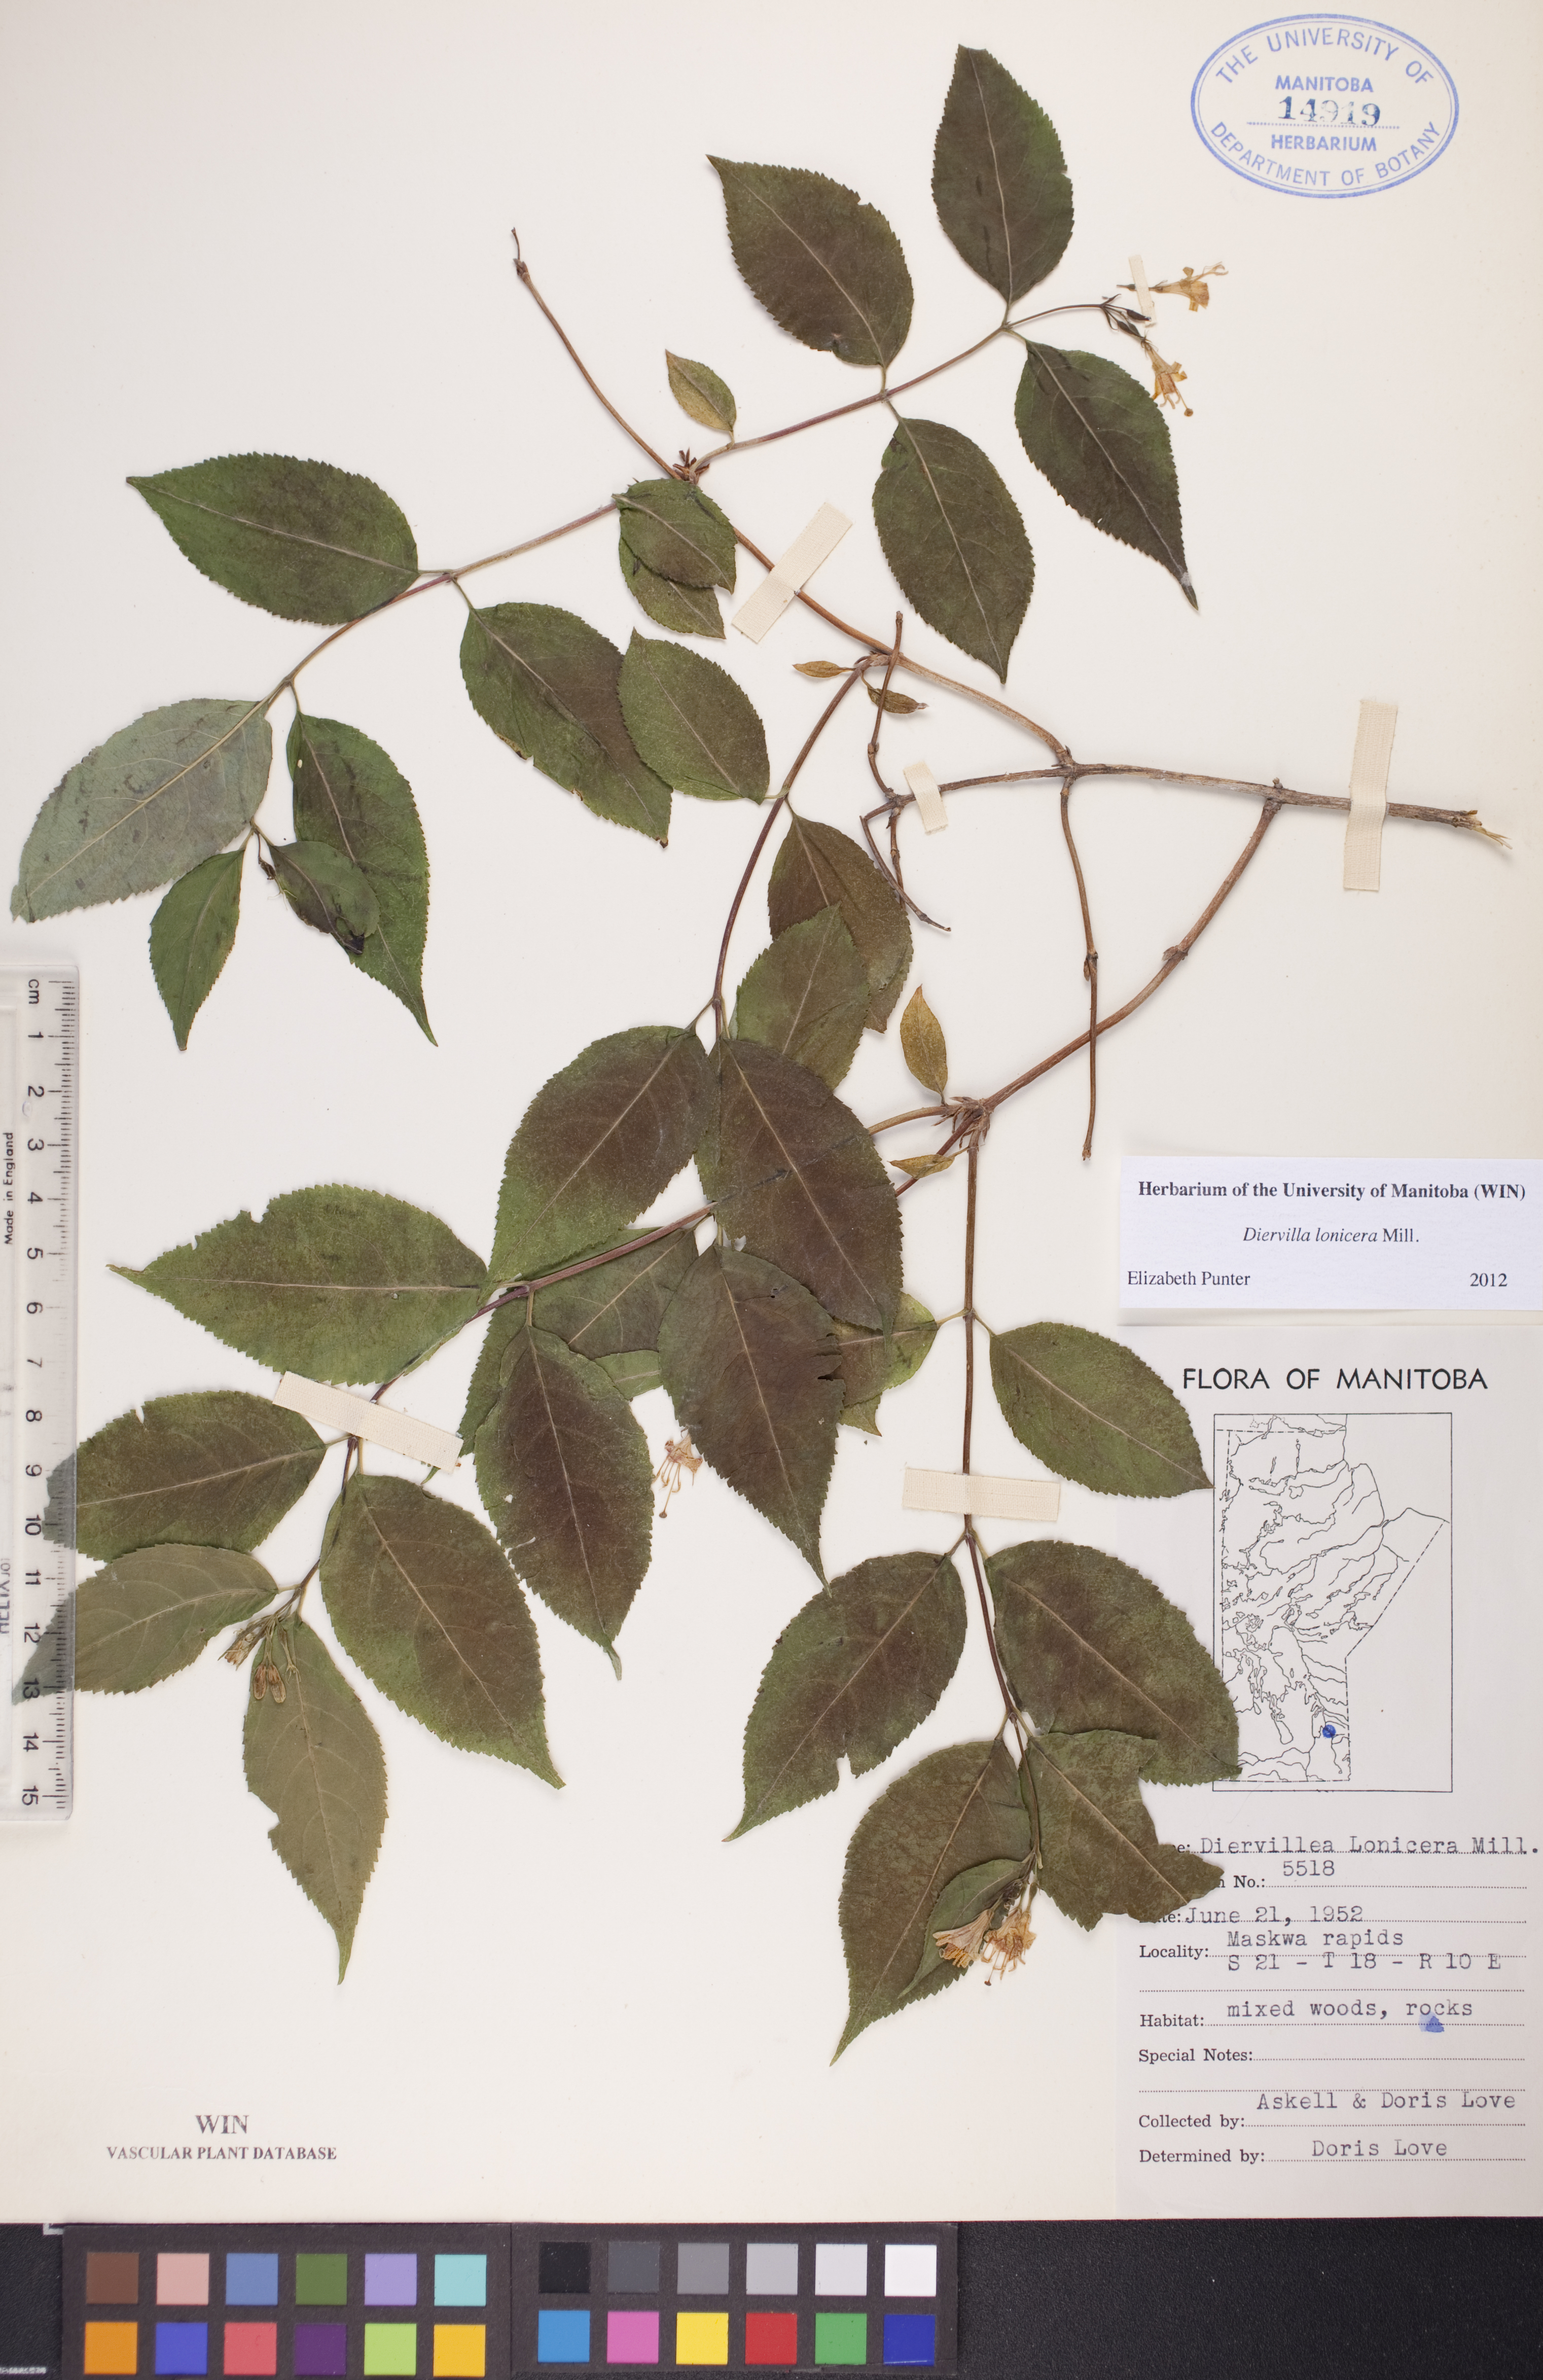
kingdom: Plantae
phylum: Tracheophyta
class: Magnoliopsida
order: Dipsacales
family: Caprifoliaceae
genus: Diervilla
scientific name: Diervilla lonicera
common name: Bush-honeysuckle
